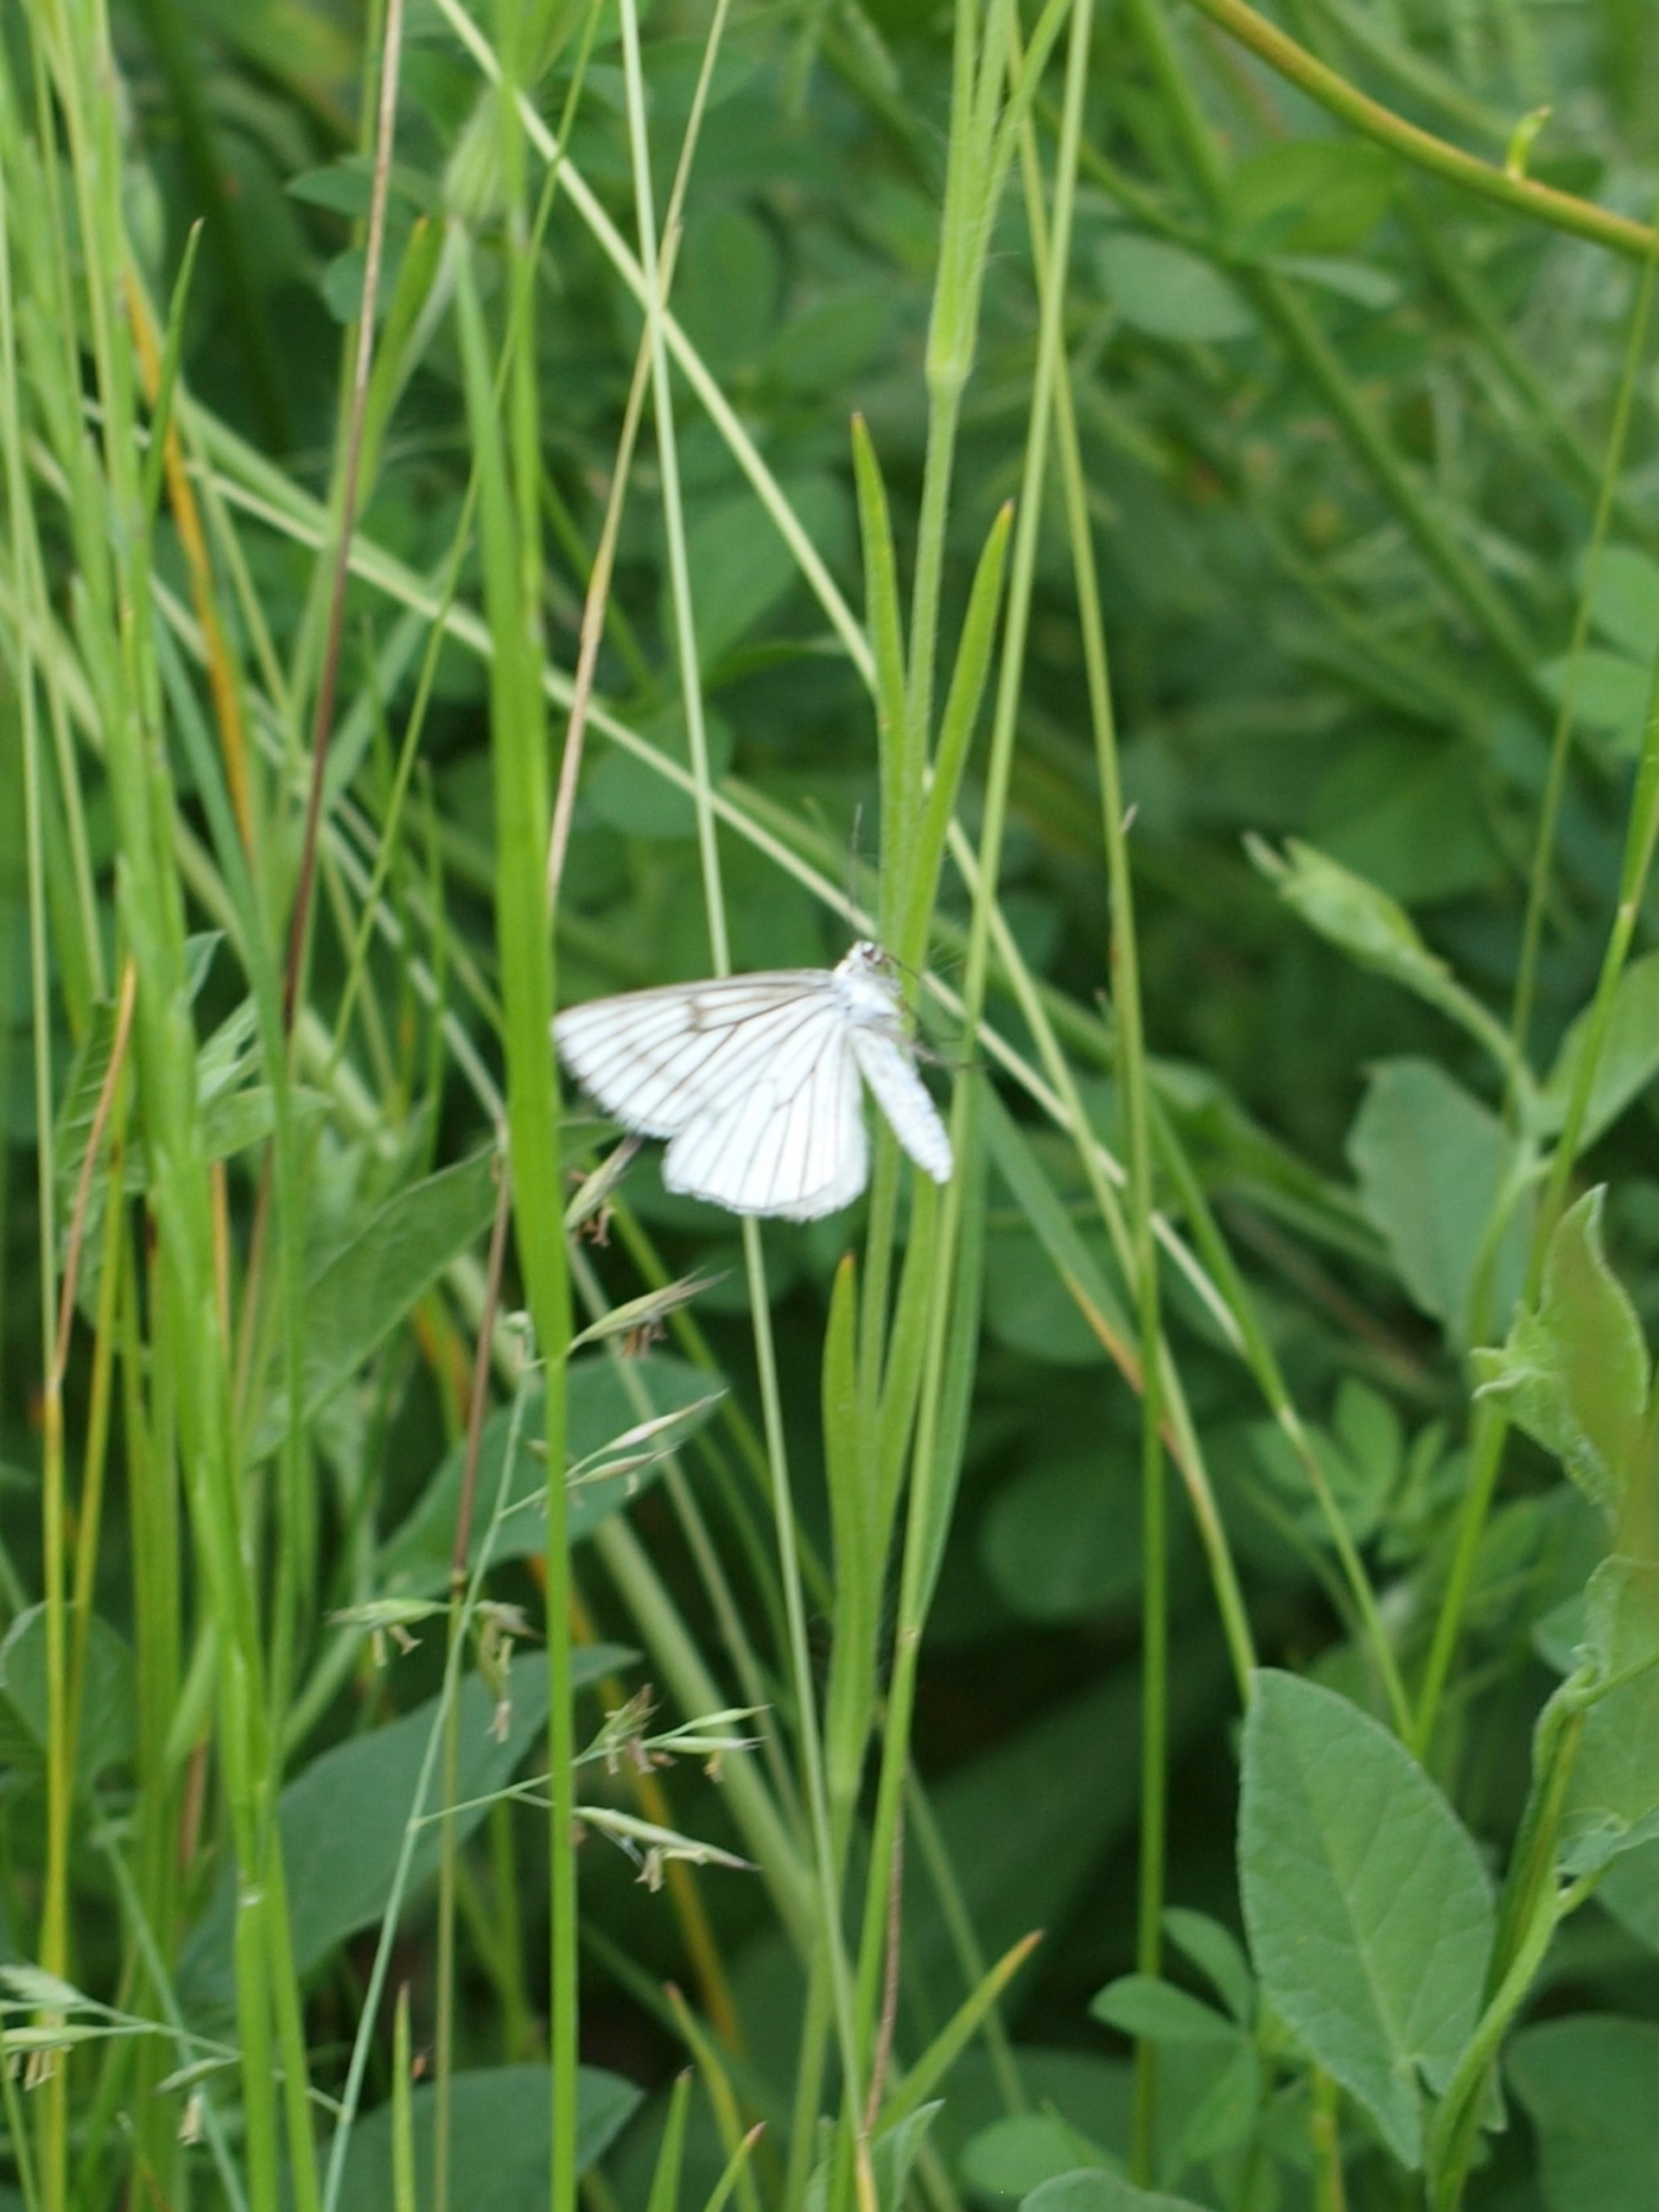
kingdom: Animalia
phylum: Arthropoda
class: Insecta
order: Lepidoptera
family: Geometridae
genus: Siona
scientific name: Siona lineata
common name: Hvidvingemåler
